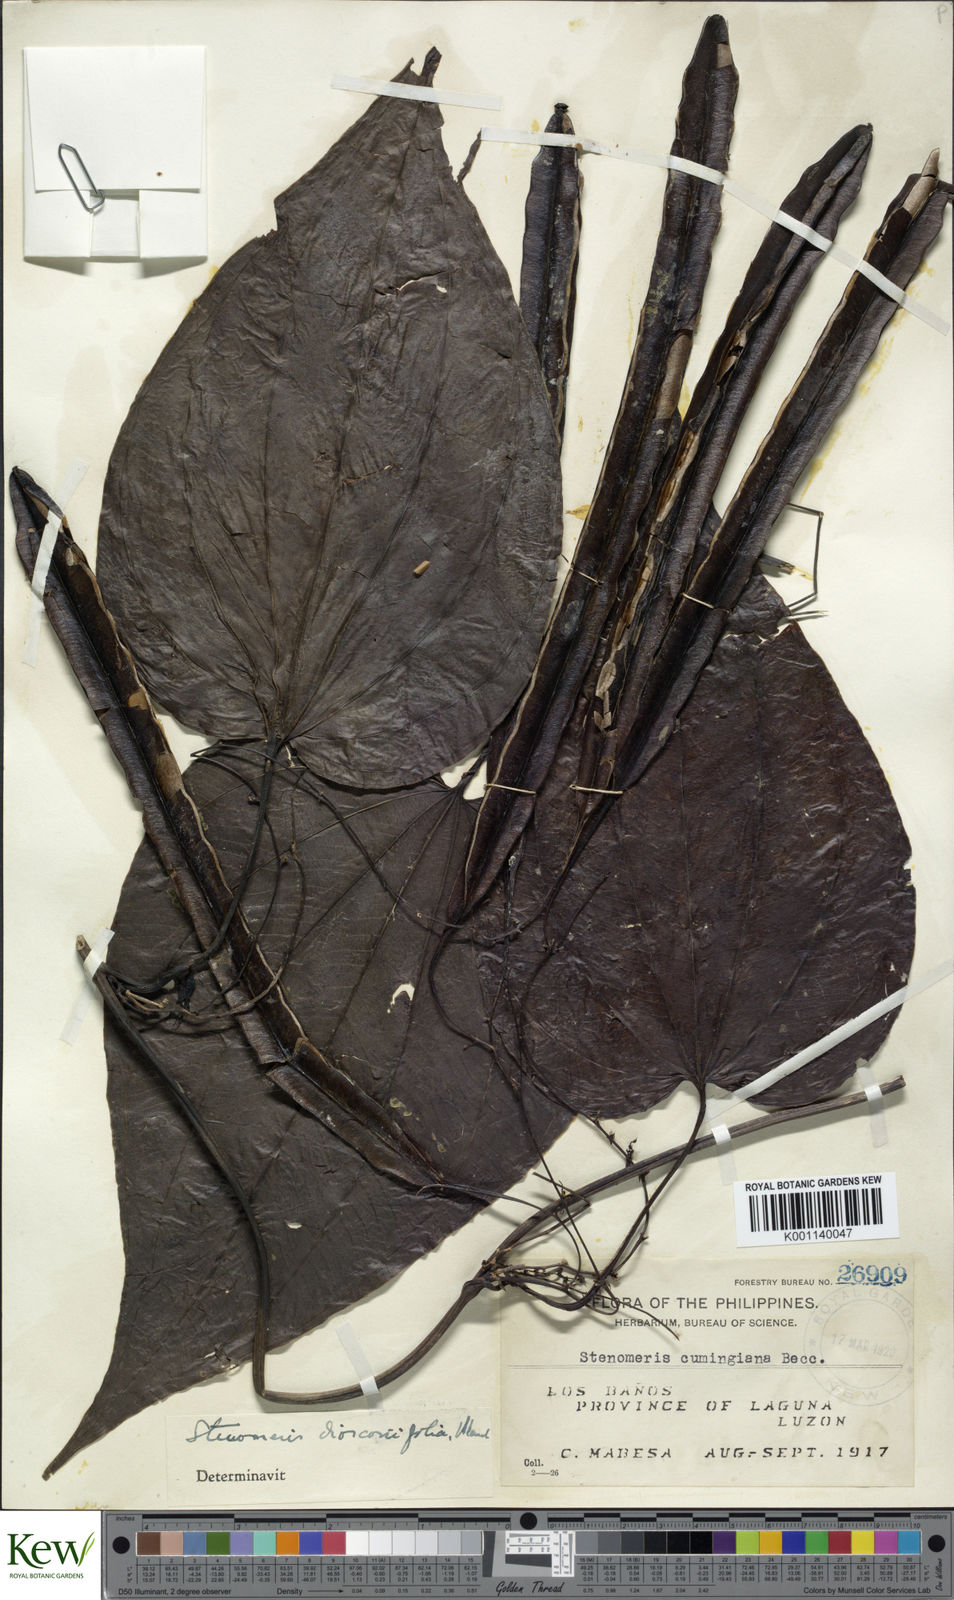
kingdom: Plantae
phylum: Tracheophyta
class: Liliopsida
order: Dioscoreales
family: Dioscoreaceae
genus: Stenomeris
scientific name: Stenomeris dioscoreifolia
